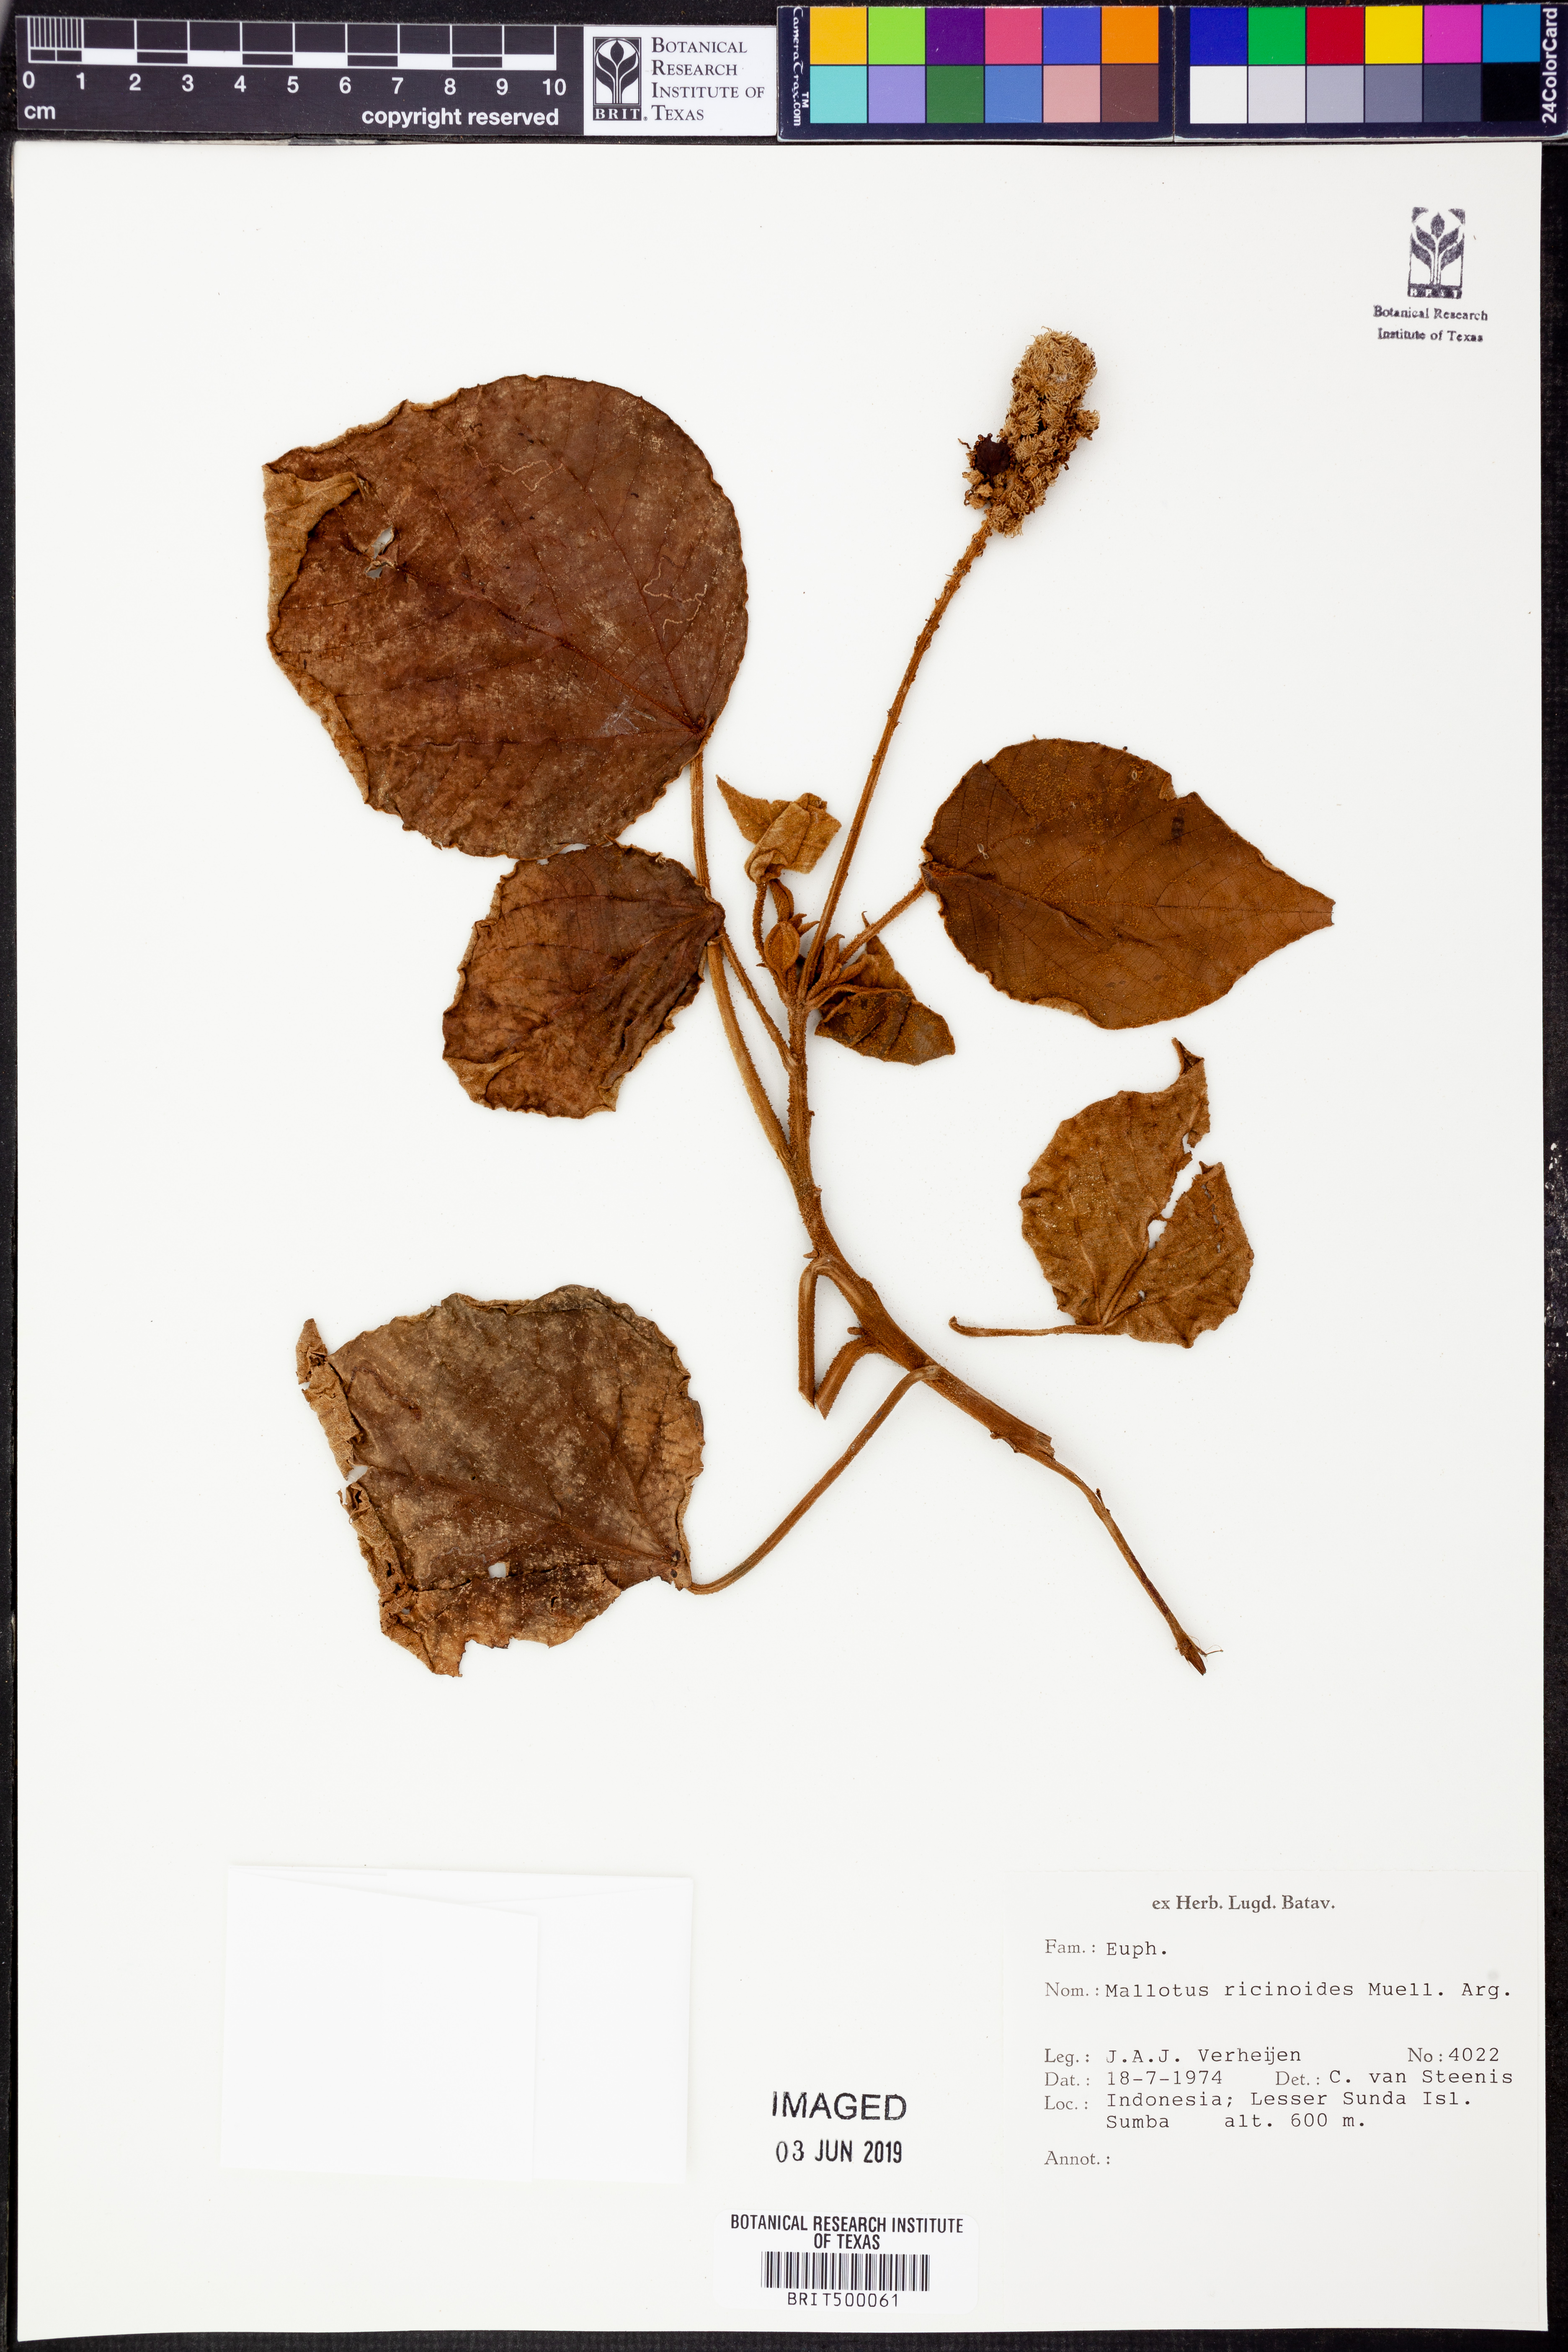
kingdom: Plantae
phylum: Tracheophyta
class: Magnoliopsida
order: Malpighiales
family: Euphorbiaceae
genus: Mallotus
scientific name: Mallotus mollissimus
